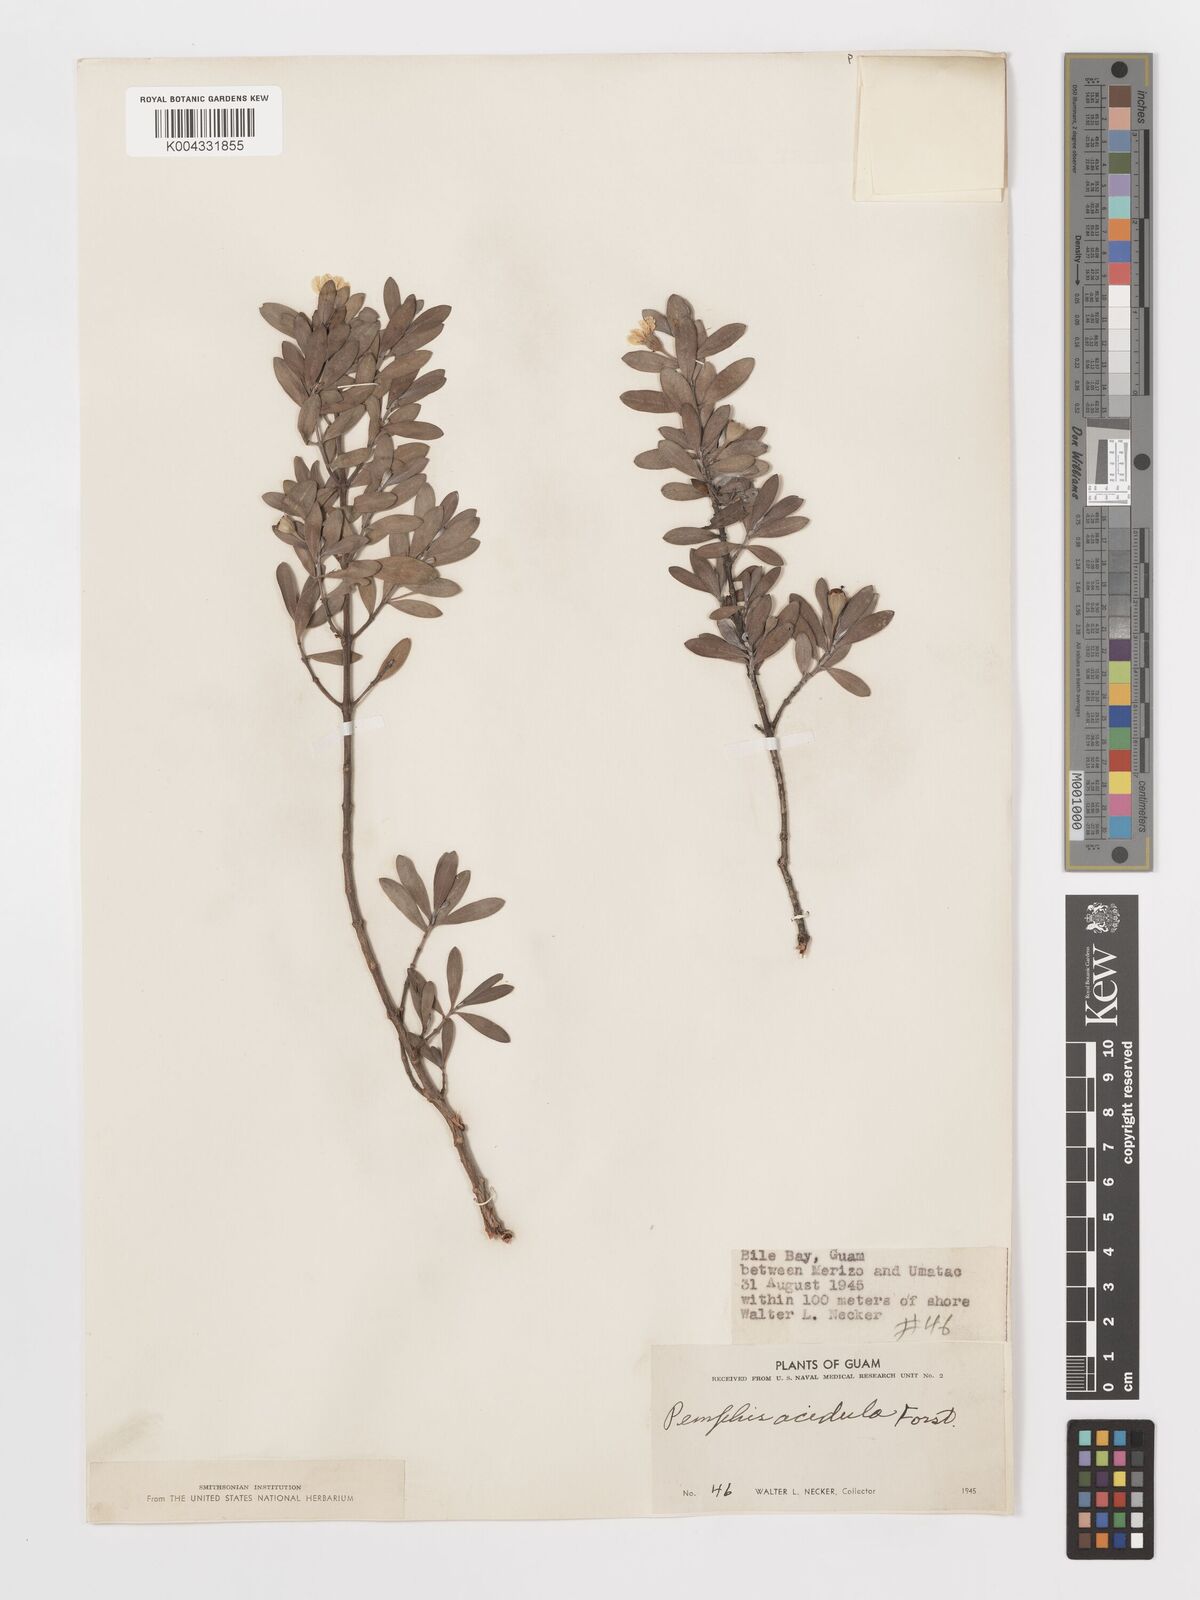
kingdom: Plantae
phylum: Tracheophyta
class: Magnoliopsida
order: Myrtales
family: Lythraceae
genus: Pemphis
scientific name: Pemphis acidula
